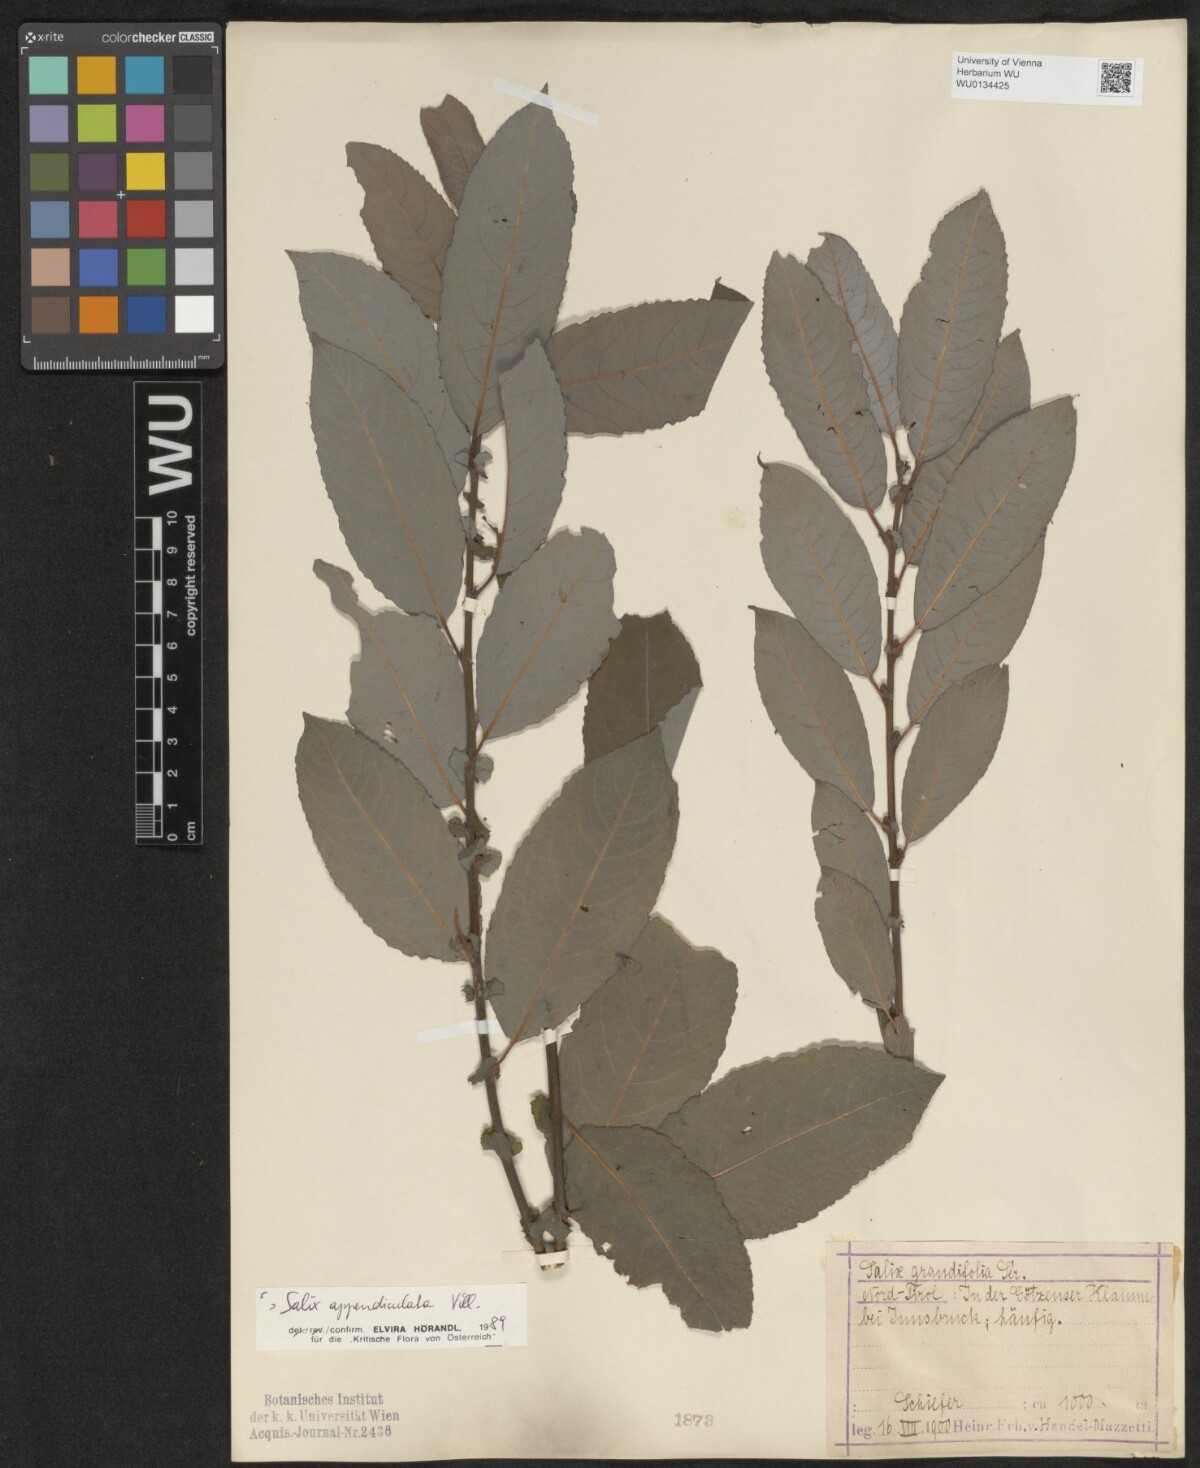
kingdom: Plantae
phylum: Tracheophyta
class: Magnoliopsida
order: Malpighiales
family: Salicaceae
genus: Salix
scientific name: Salix appendiculata
